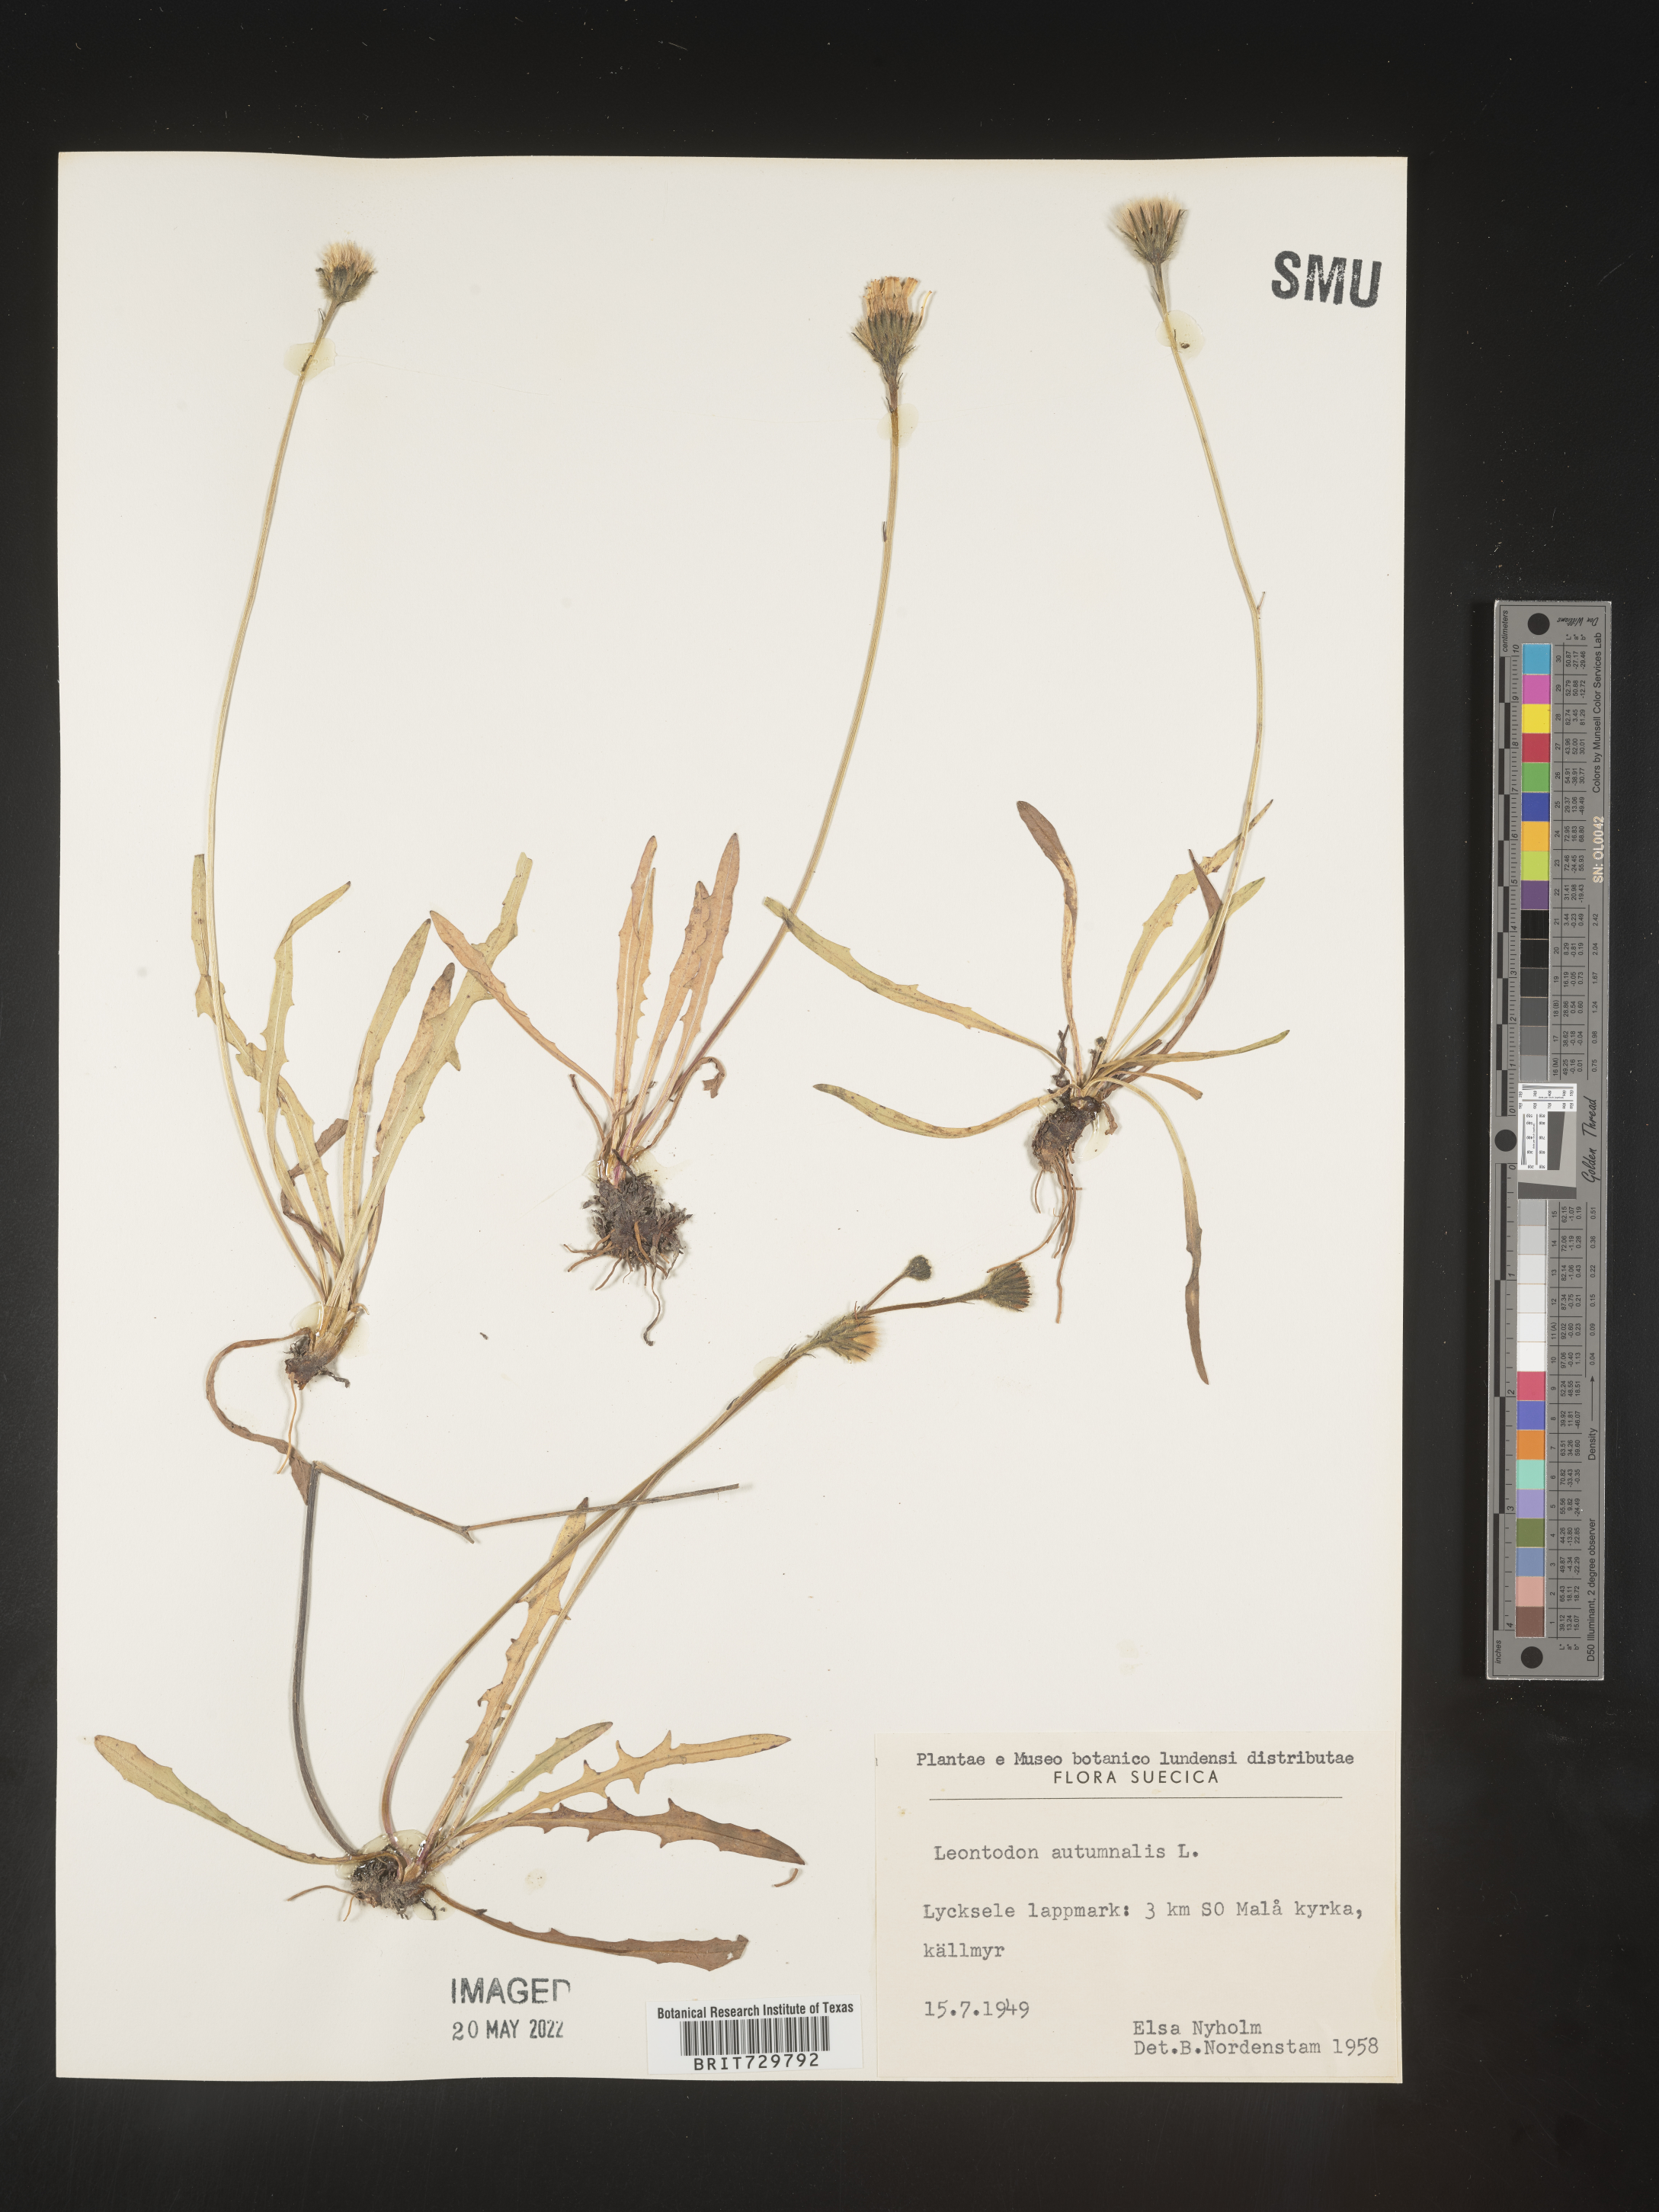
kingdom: Plantae
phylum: Tracheophyta
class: Magnoliopsida
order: Asterales
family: Asteraceae
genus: Leontodon
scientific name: Leontodon
